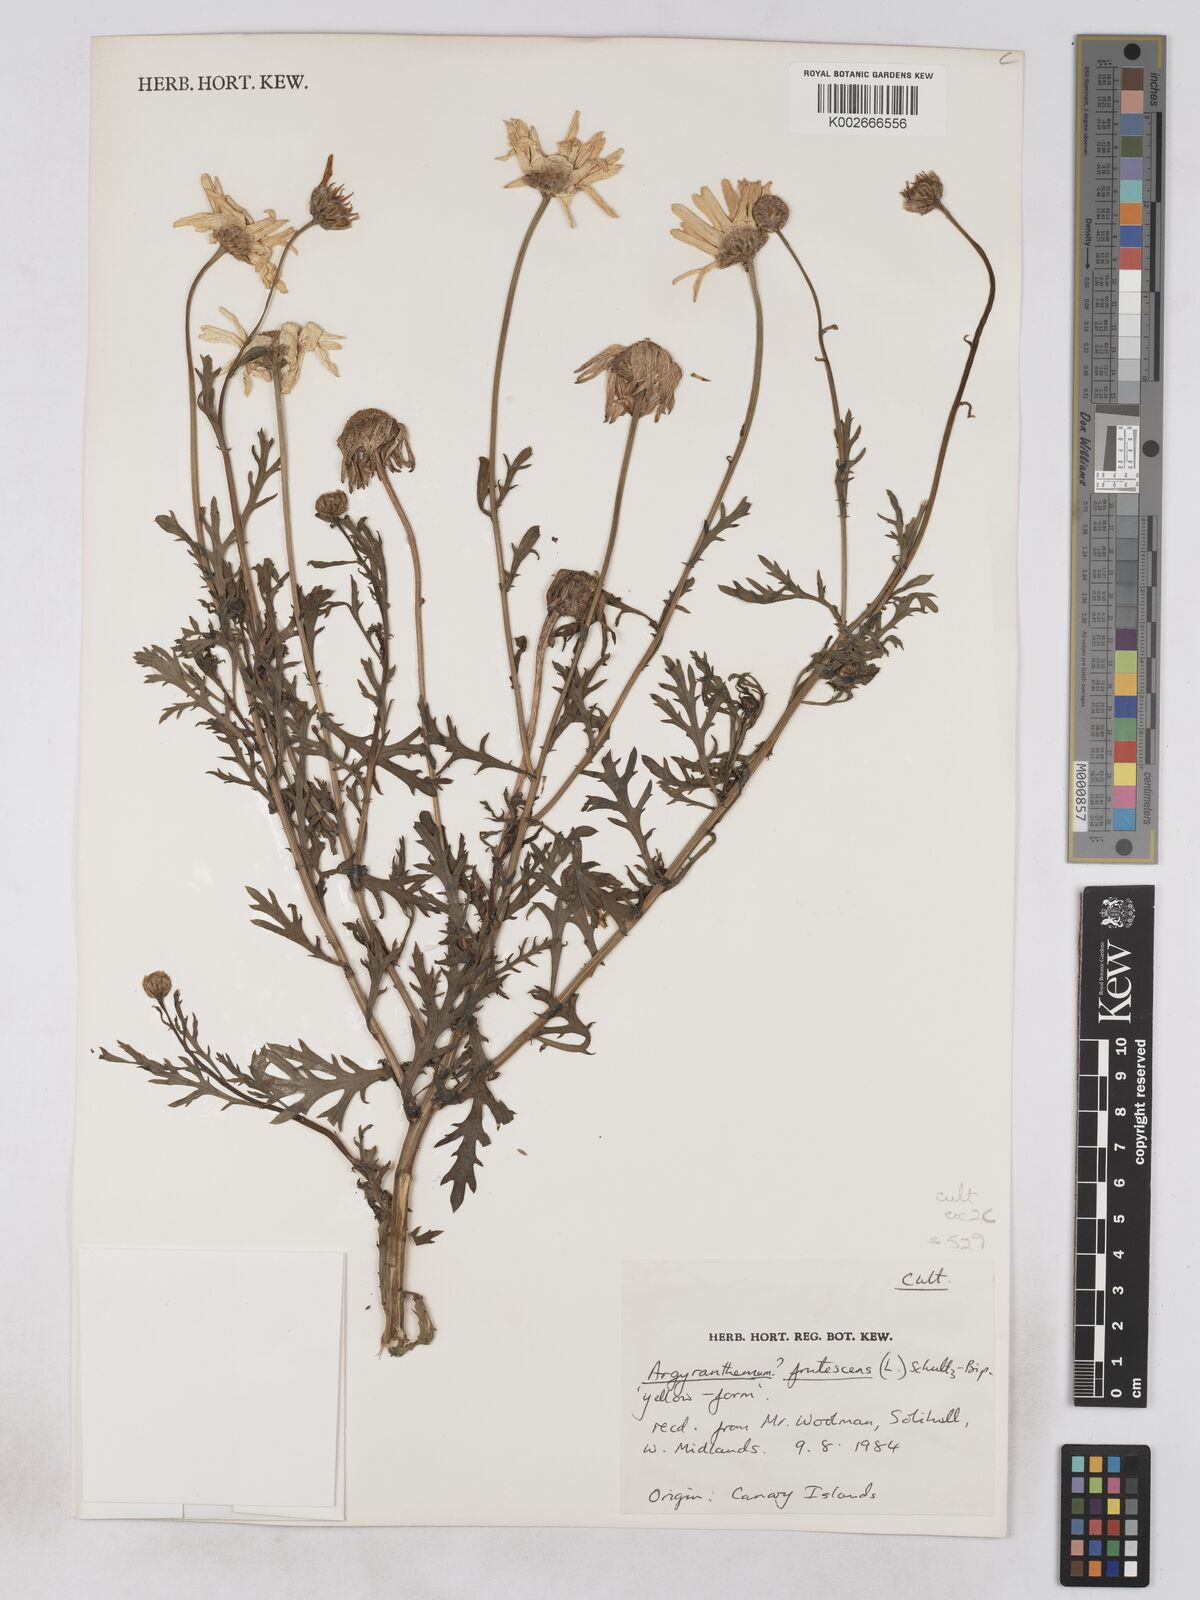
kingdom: Plantae
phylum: Tracheophyta
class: Magnoliopsida
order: Asterales
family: Asteraceae
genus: Argyranthemum
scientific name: Argyranthemum frutescens
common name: Paris daisy
